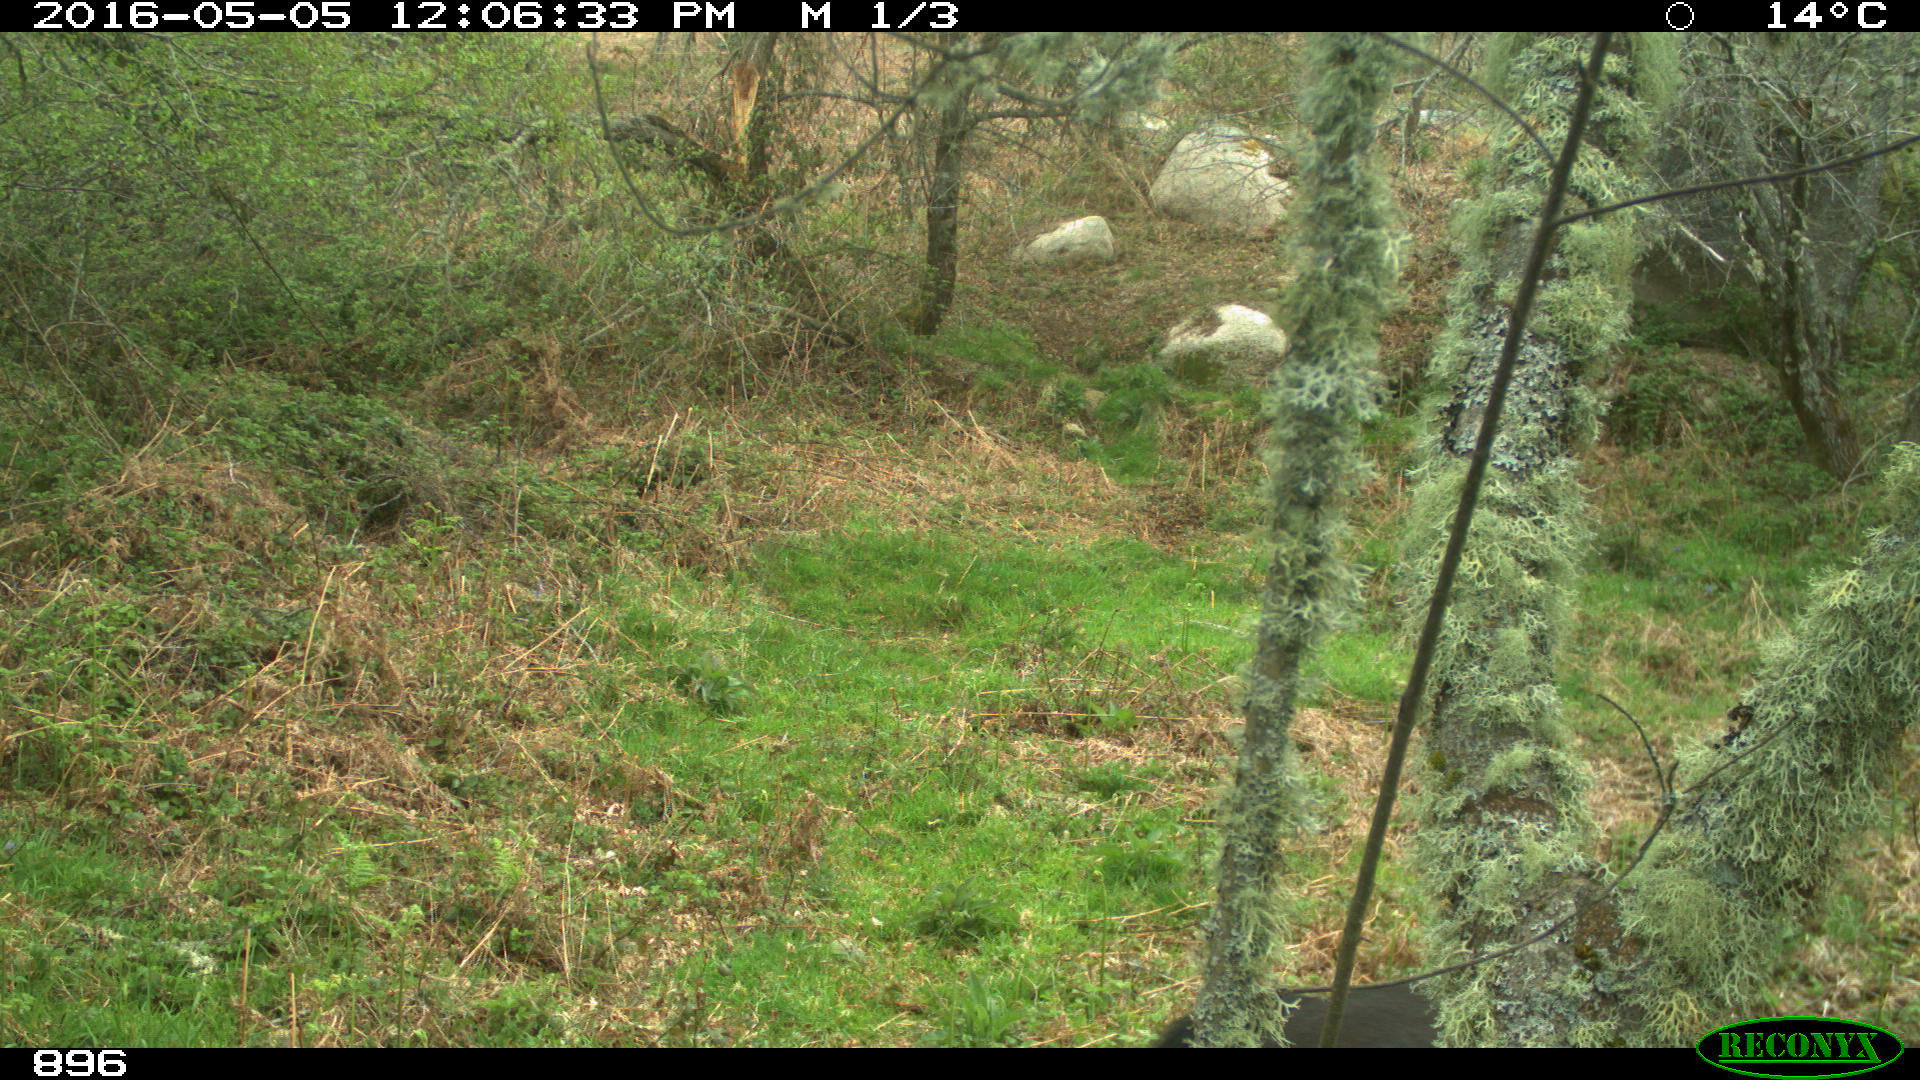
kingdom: Animalia
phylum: Chordata
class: Mammalia
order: Perissodactyla
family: Equidae
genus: Equus
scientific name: Equus caballus
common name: Horse
